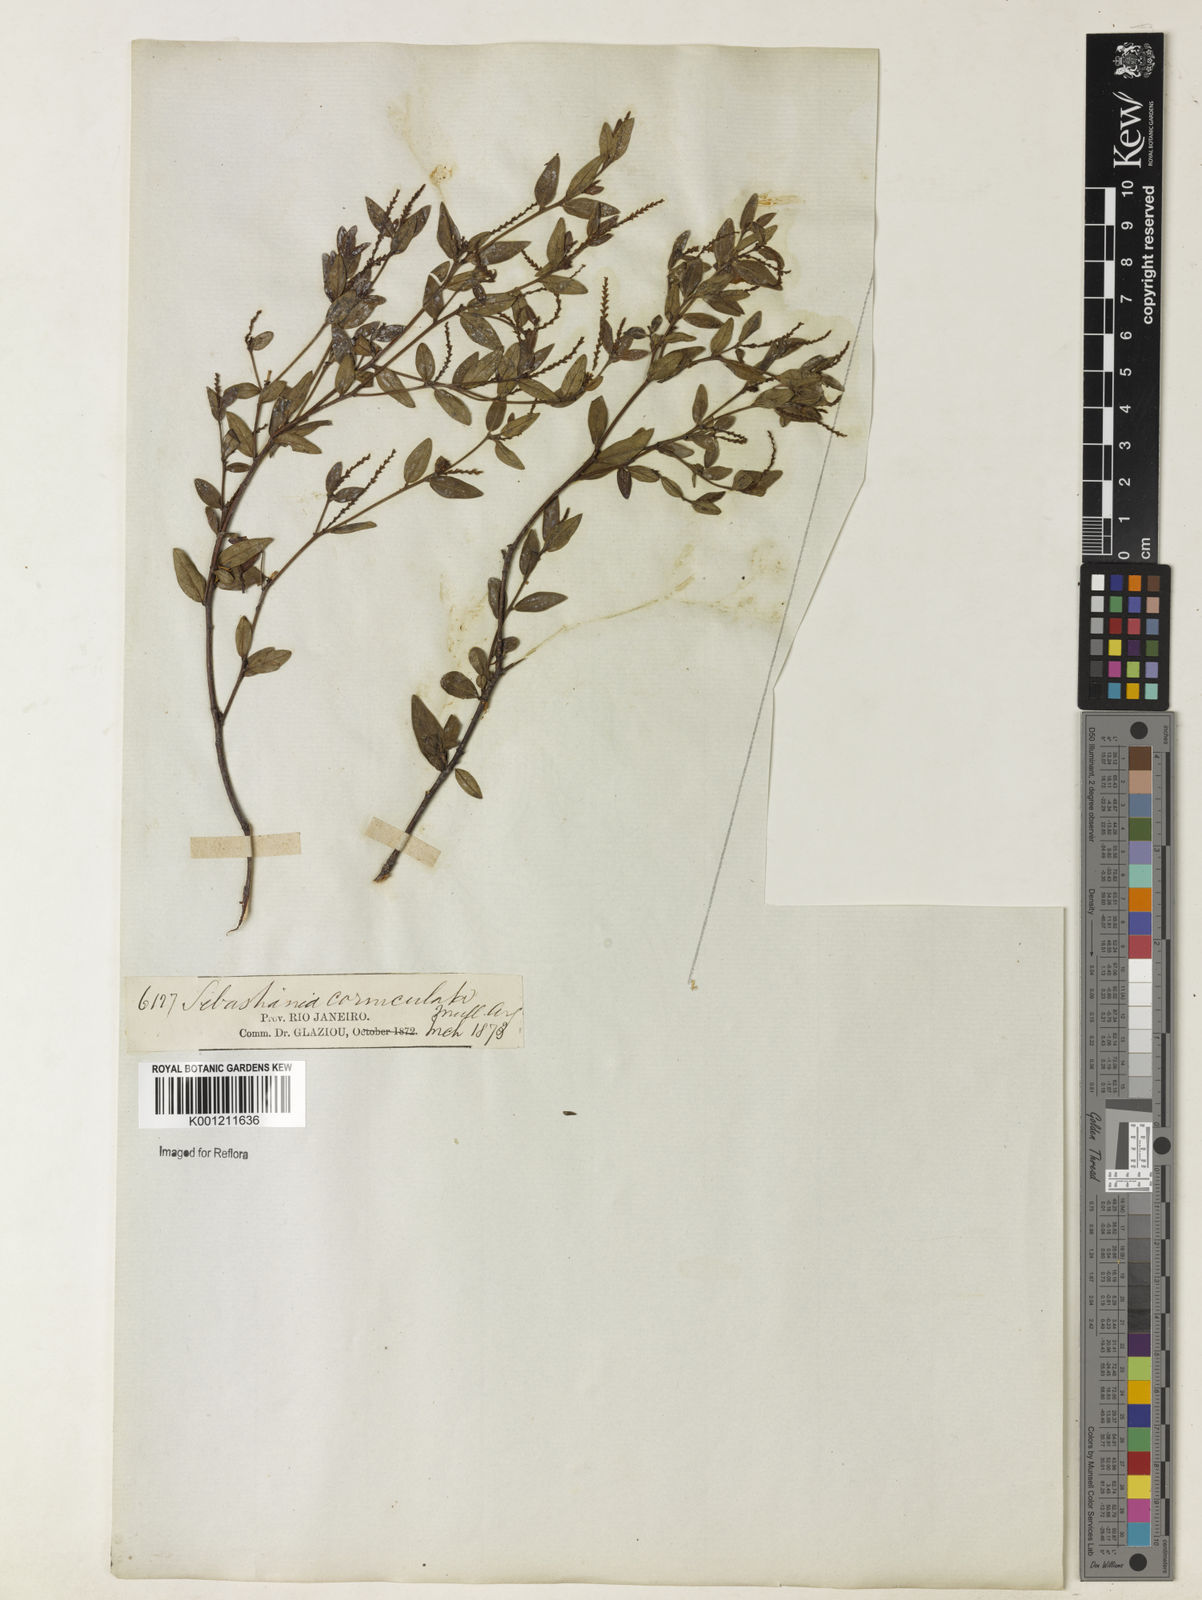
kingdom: Plantae
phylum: Tracheophyta
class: Magnoliopsida
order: Malpighiales
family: Euphorbiaceae
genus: Microstachys
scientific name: Microstachys
